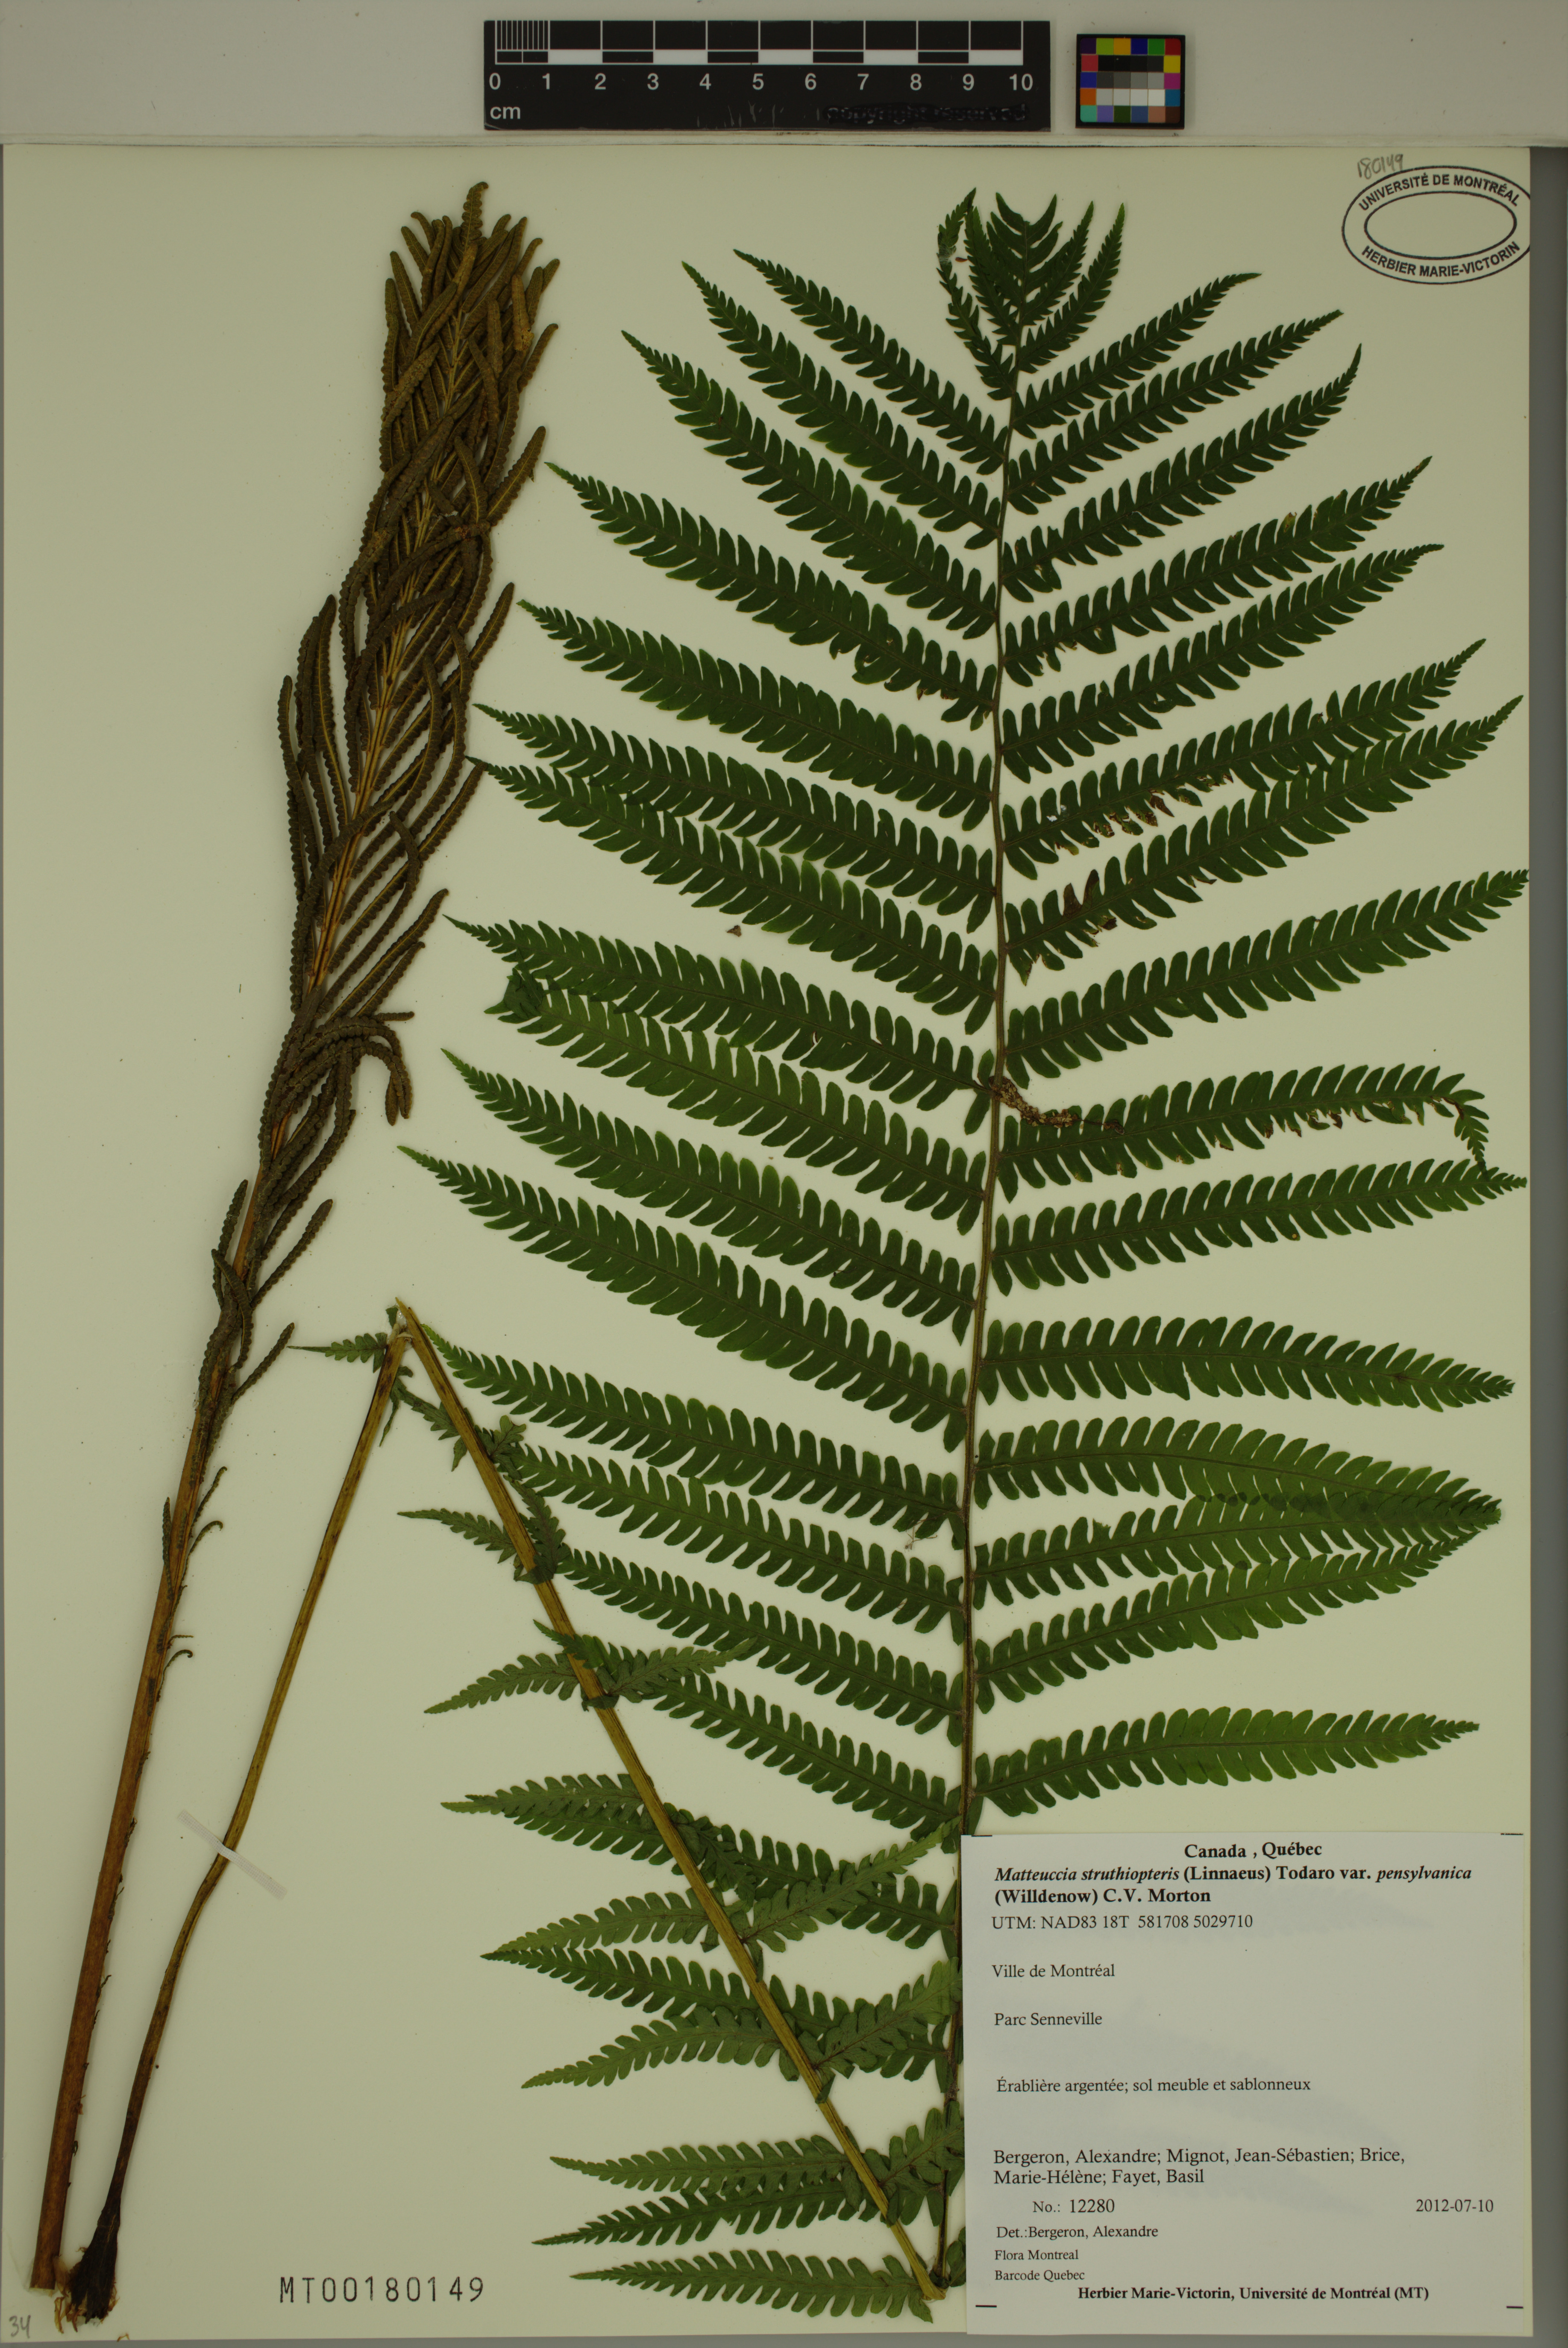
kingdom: Plantae
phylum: Tracheophyta
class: Polypodiopsida
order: Polypodiales
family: Onocleaceae
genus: Matteuccia
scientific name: Matteuccia pensylvanica
